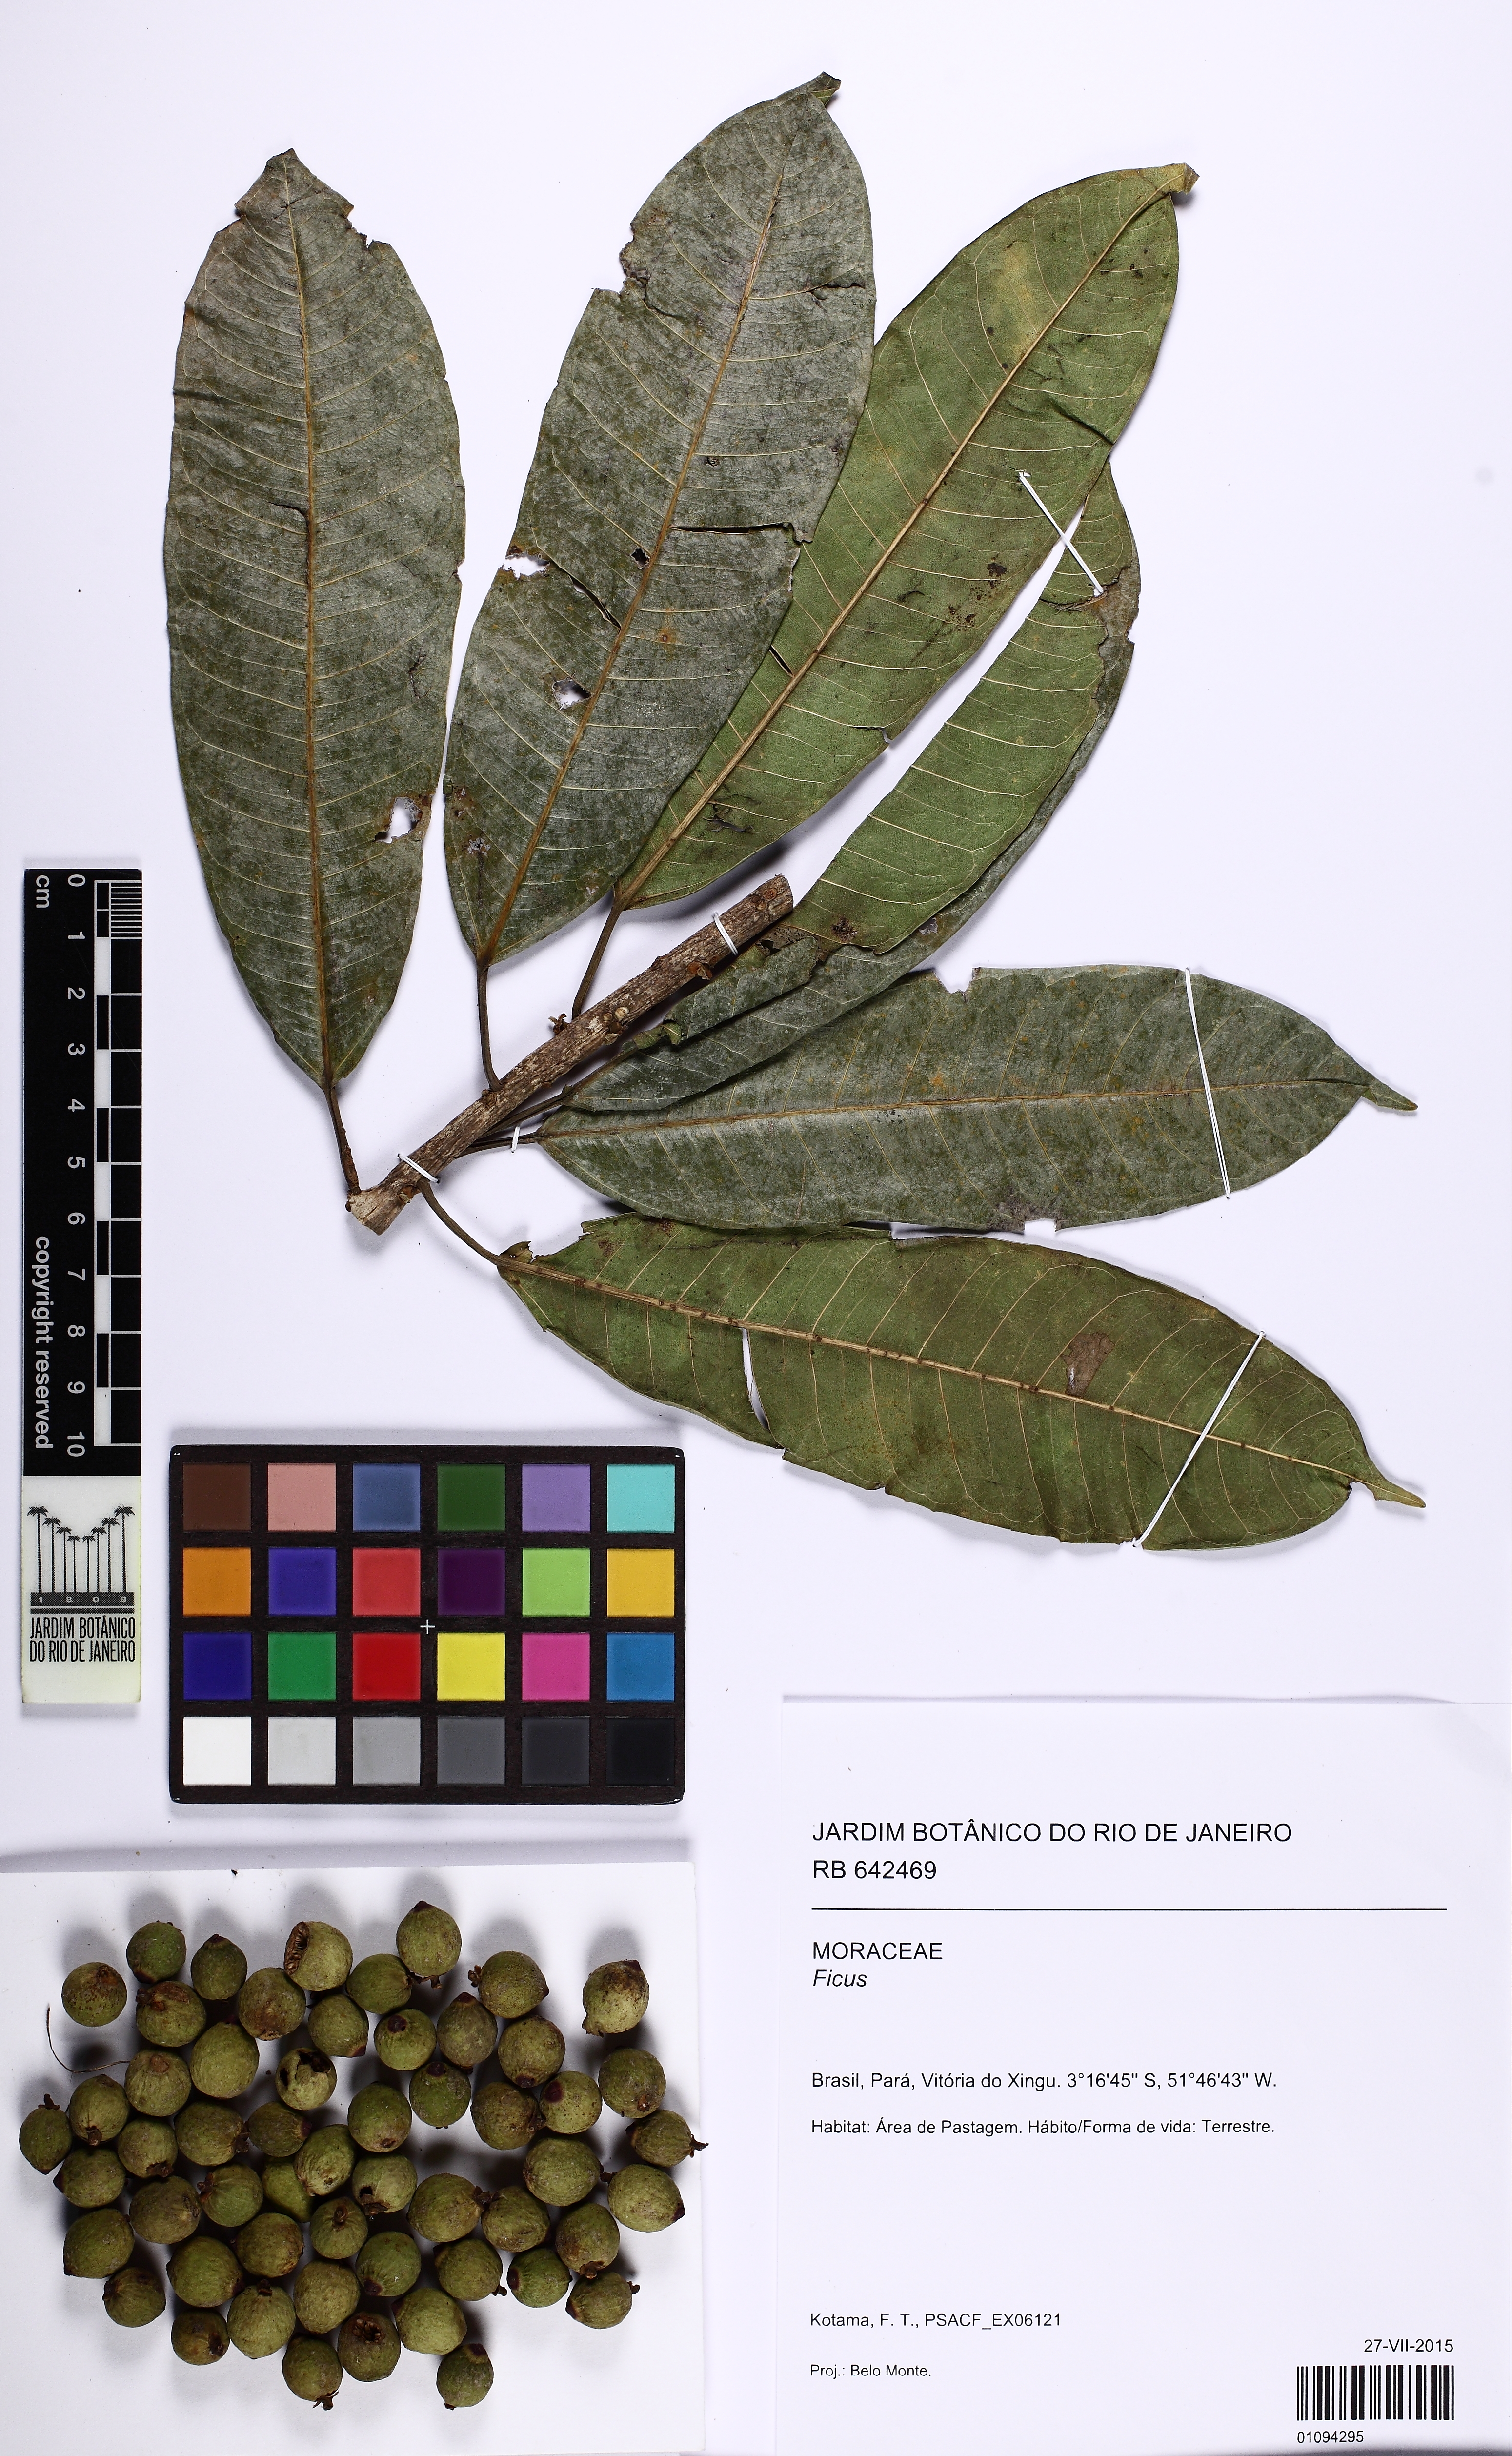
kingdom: Plantae
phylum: Tracheophyta
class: Magnoliopsida
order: Rosales
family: Moraceae
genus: Ficus
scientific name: Ficus paraensis
